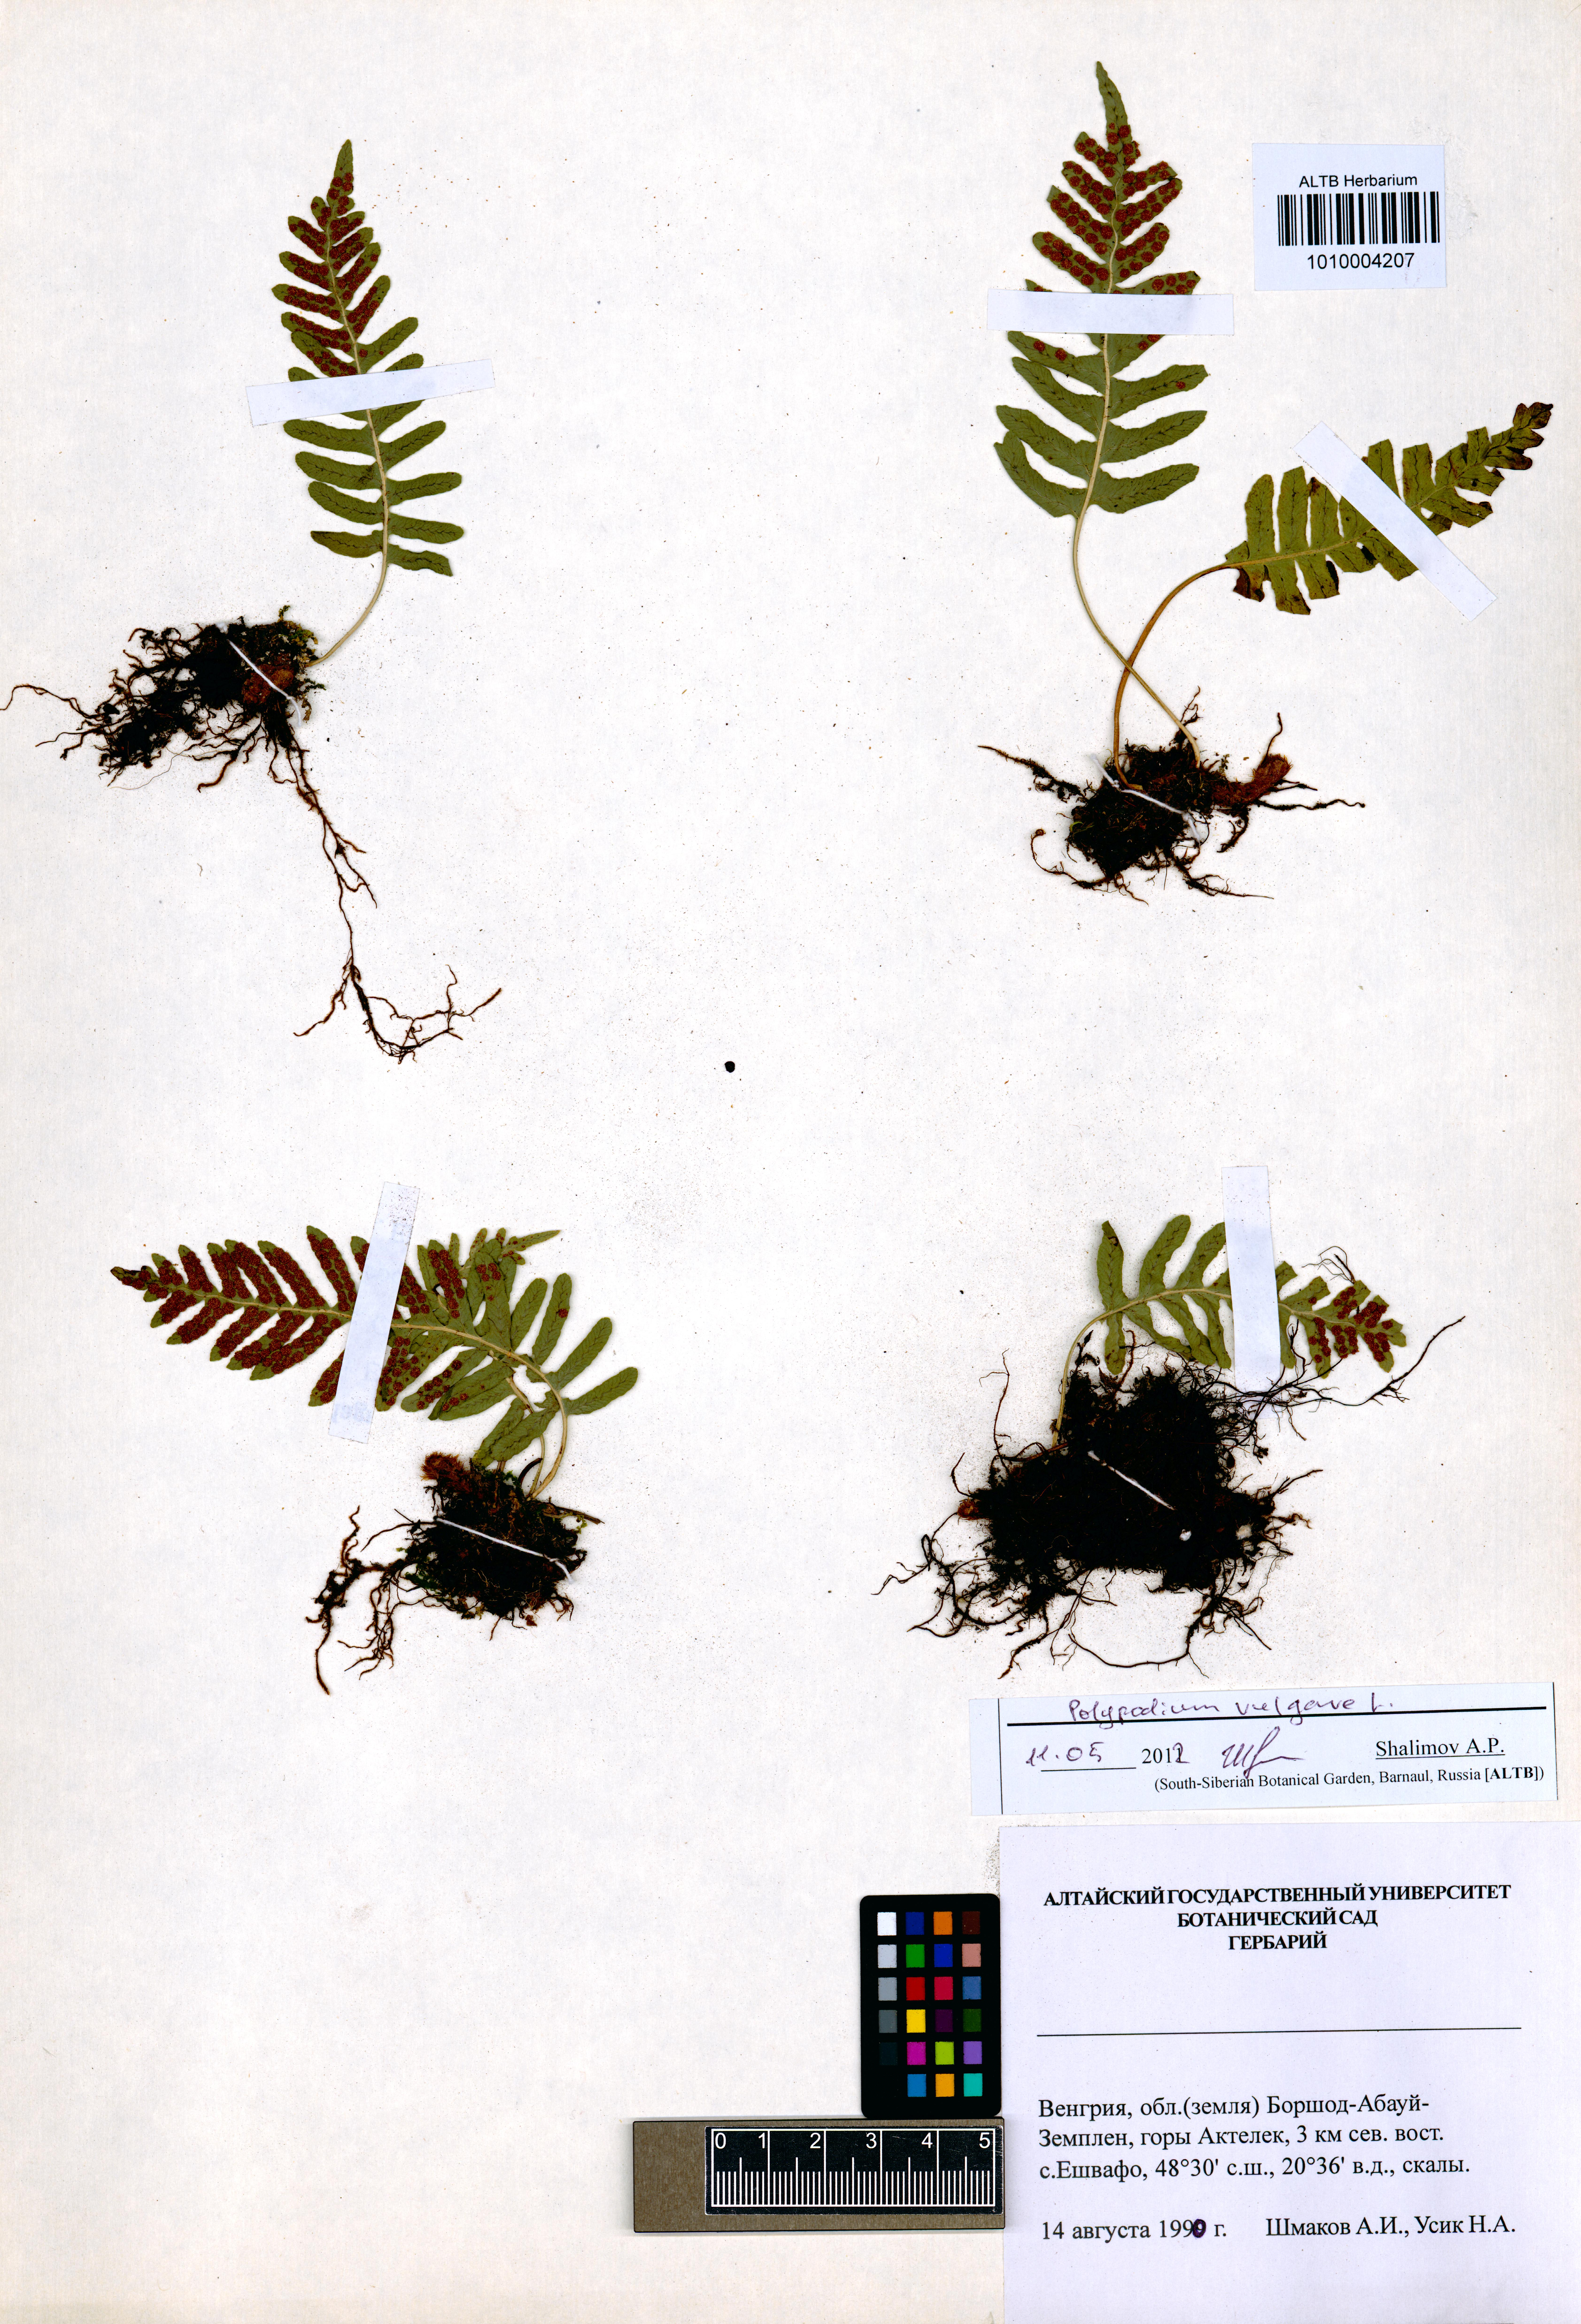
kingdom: Plantae
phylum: Tracheophyta
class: Polypodiopsida
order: Polypodiales
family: Polypodiaceae
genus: Polypodium
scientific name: Polypodium vulgare
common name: Common polypody
